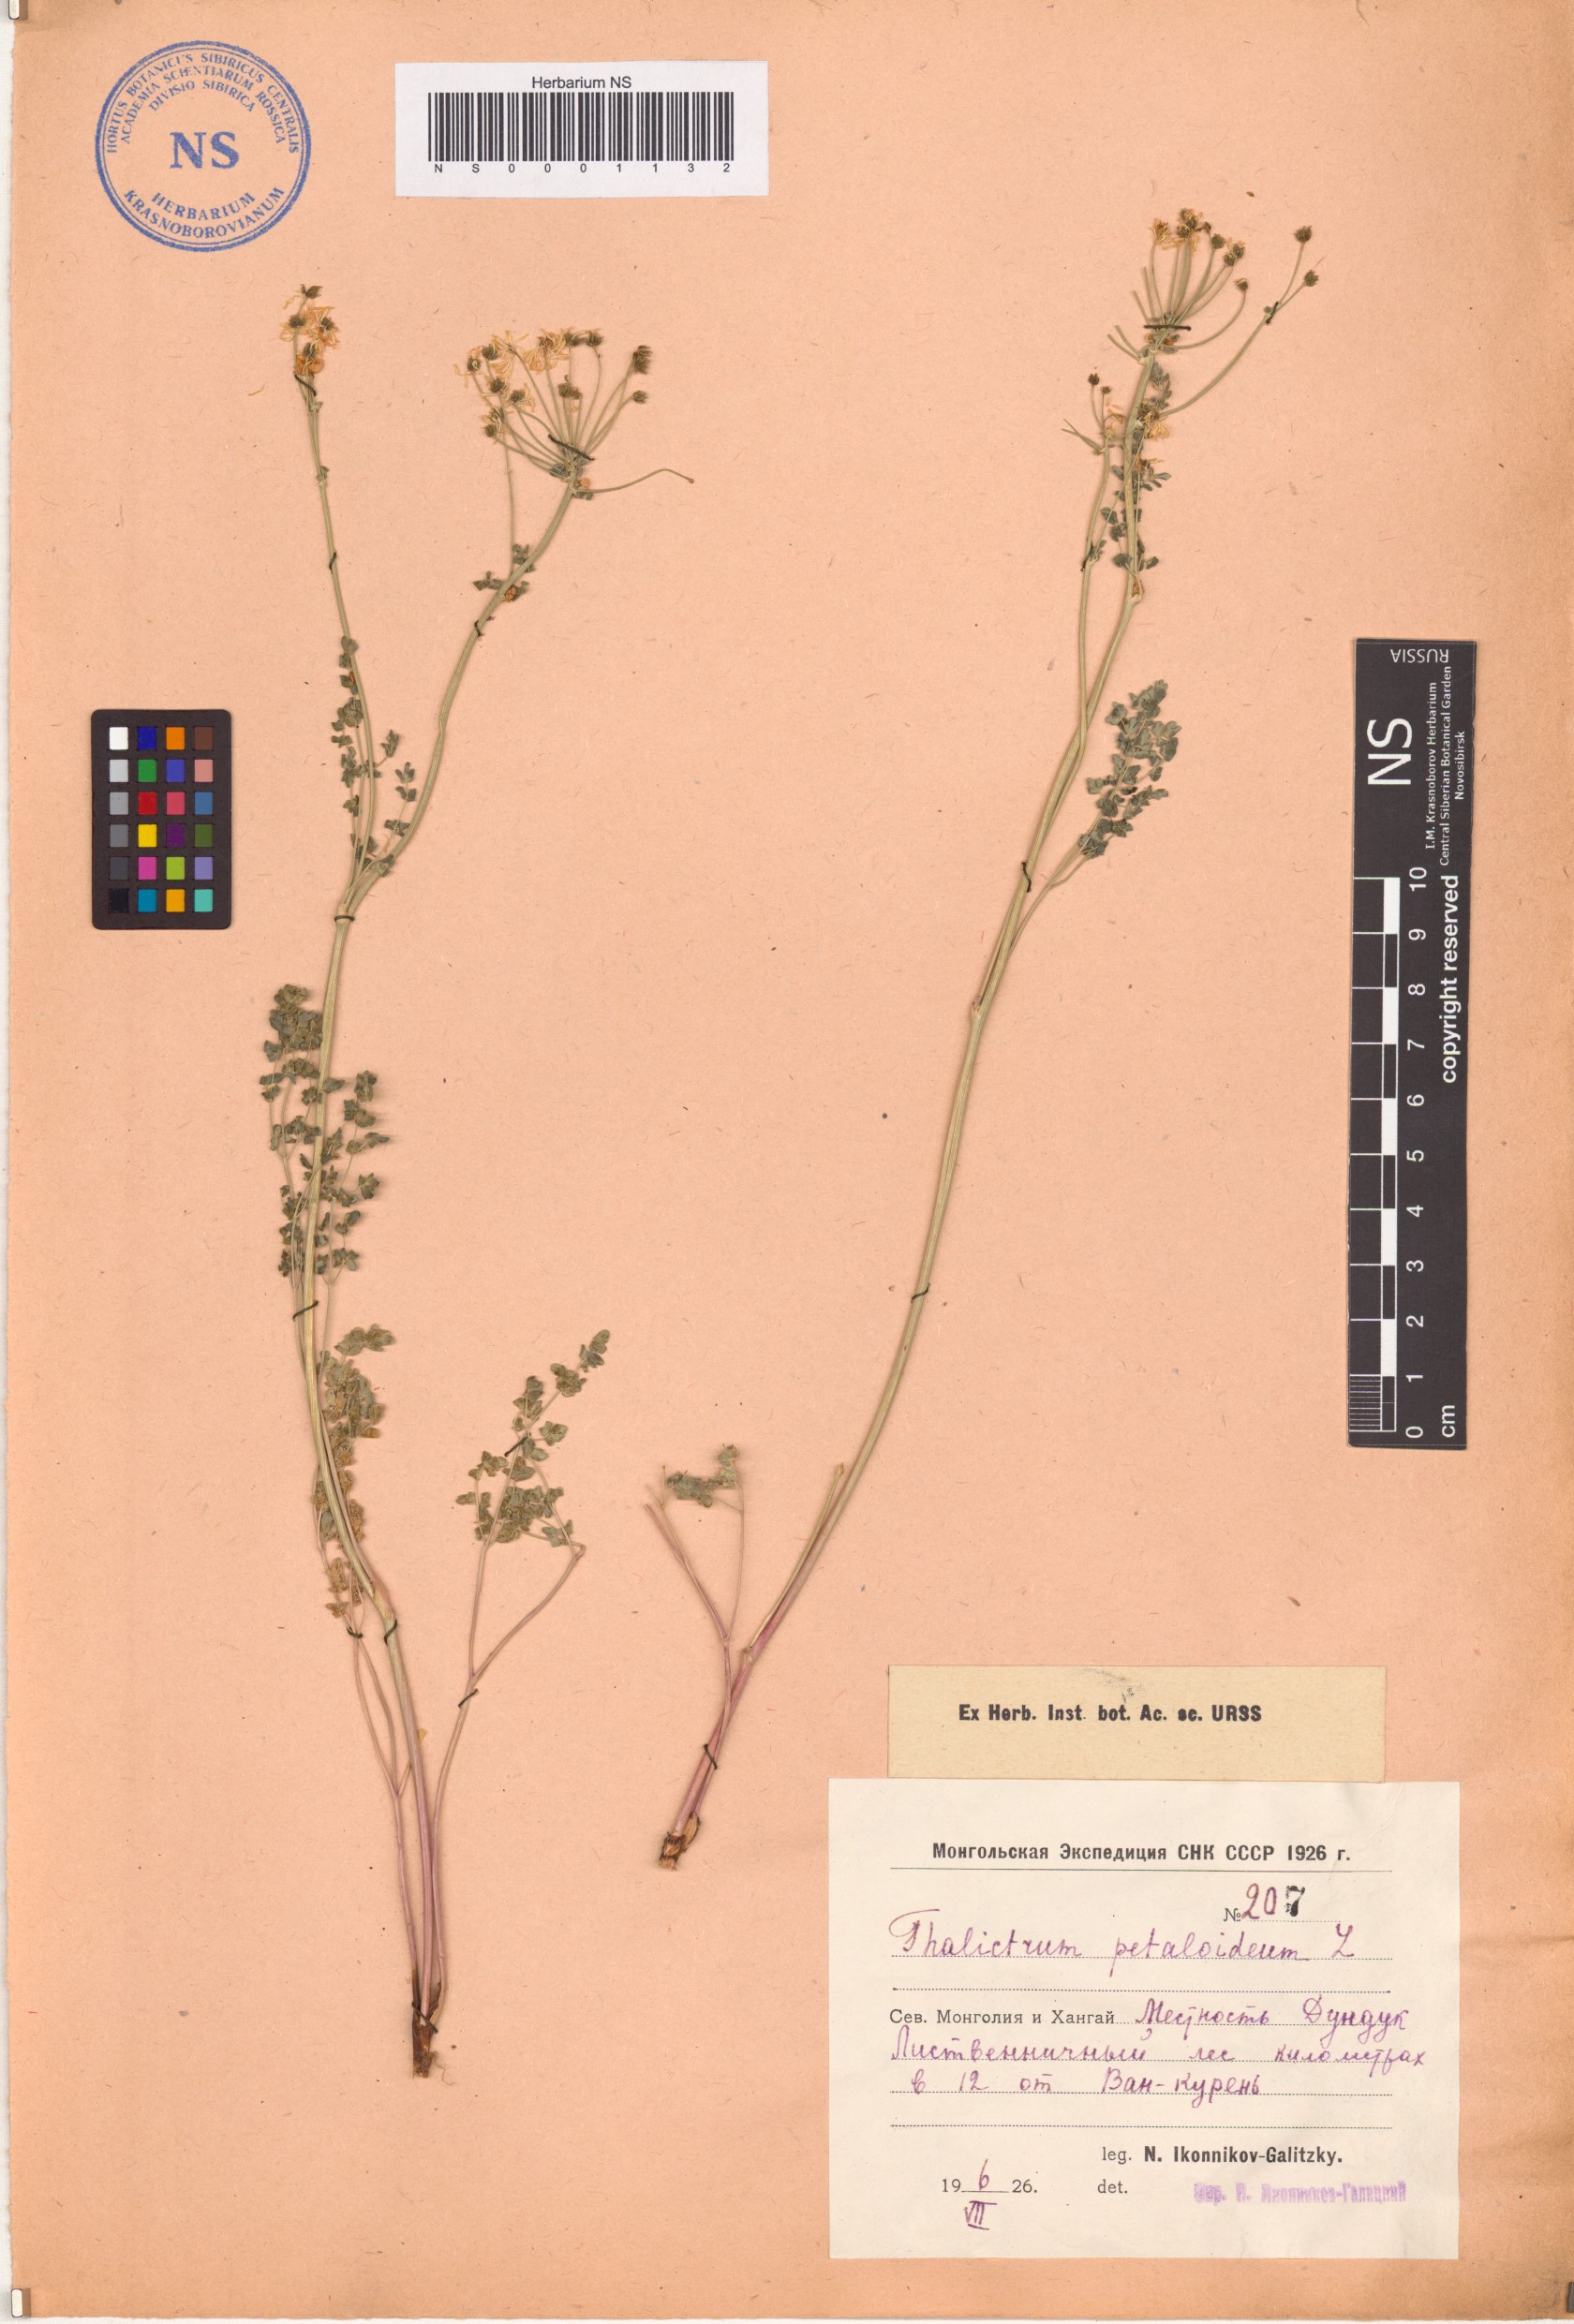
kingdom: Plantae
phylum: Tracheophyta
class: Magnoliopsida
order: Ranunculales
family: Ranunculaceae
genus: Thalictrum
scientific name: Thalictrum petaloideum
